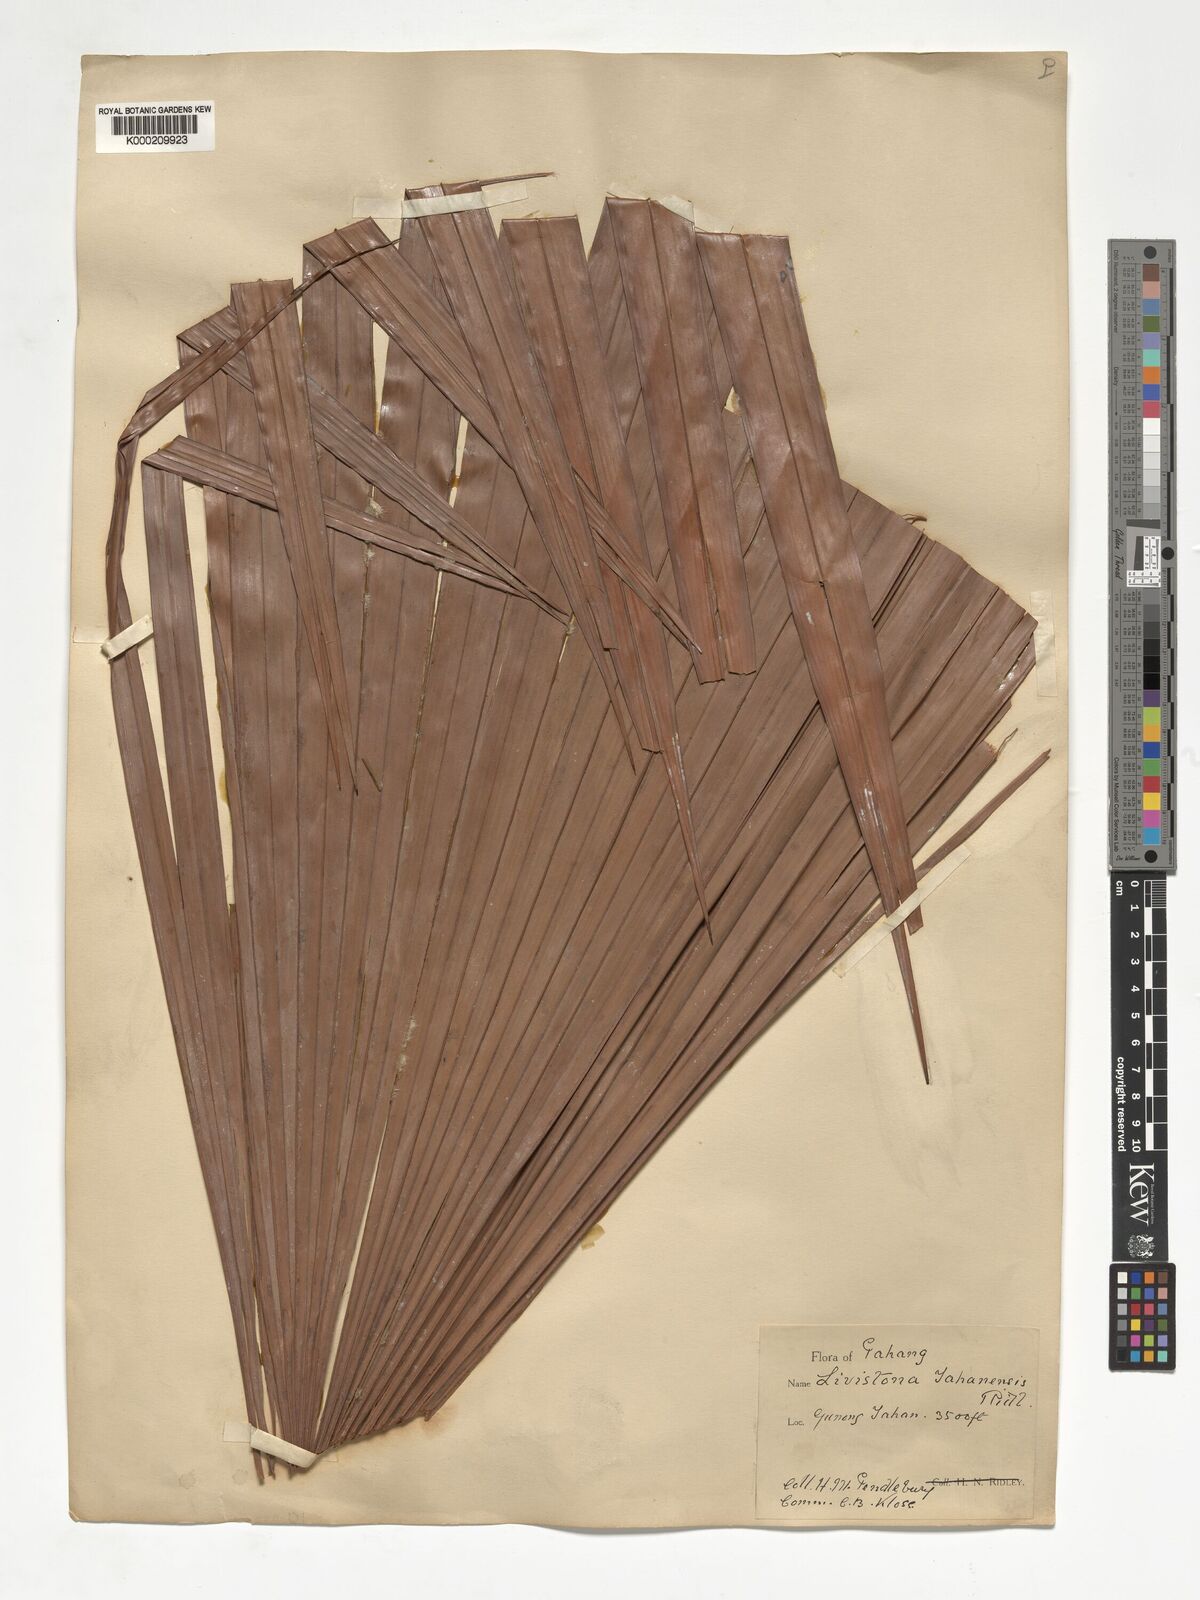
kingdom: Plantae
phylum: Tracheophyta
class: Liliopsida
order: Arecales
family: Arecaceae
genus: Livistona
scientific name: Livistona tahanensis
